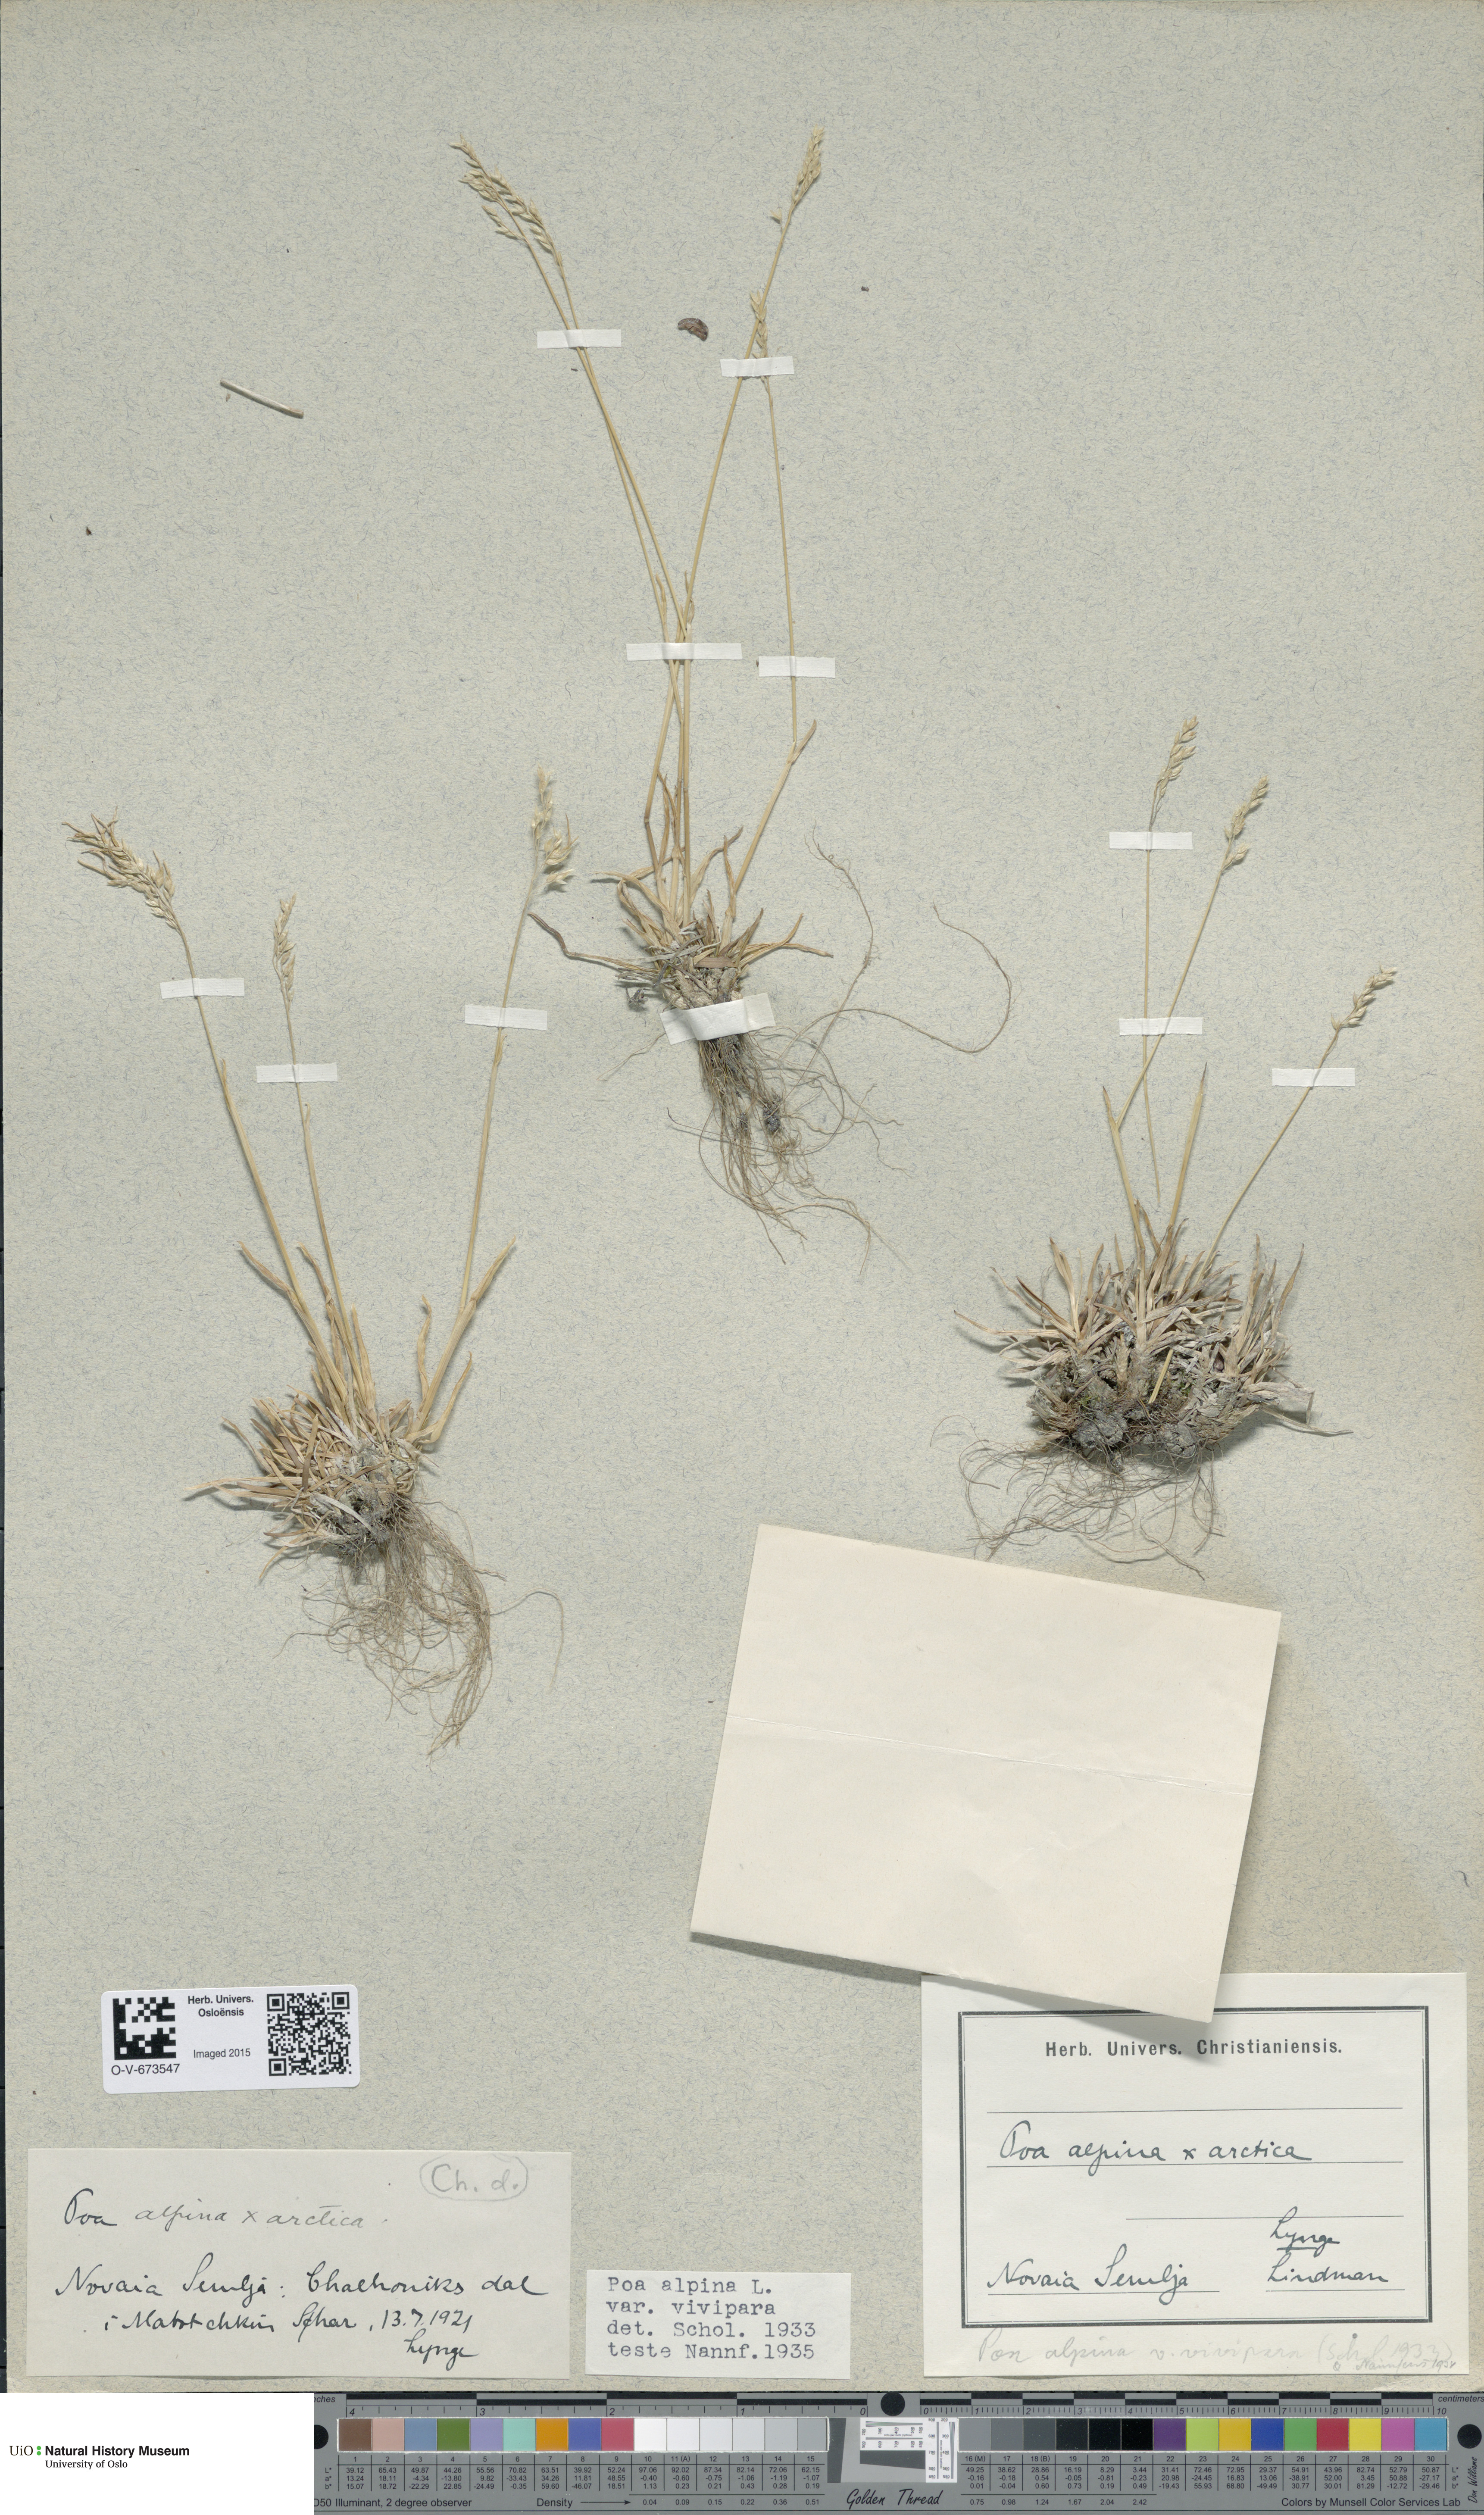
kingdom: Plantae
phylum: Tracheophyta
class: Liliopsida
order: Poales
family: Poaceae
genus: Poa
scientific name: Poa alpina
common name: Alpine bluegrass
